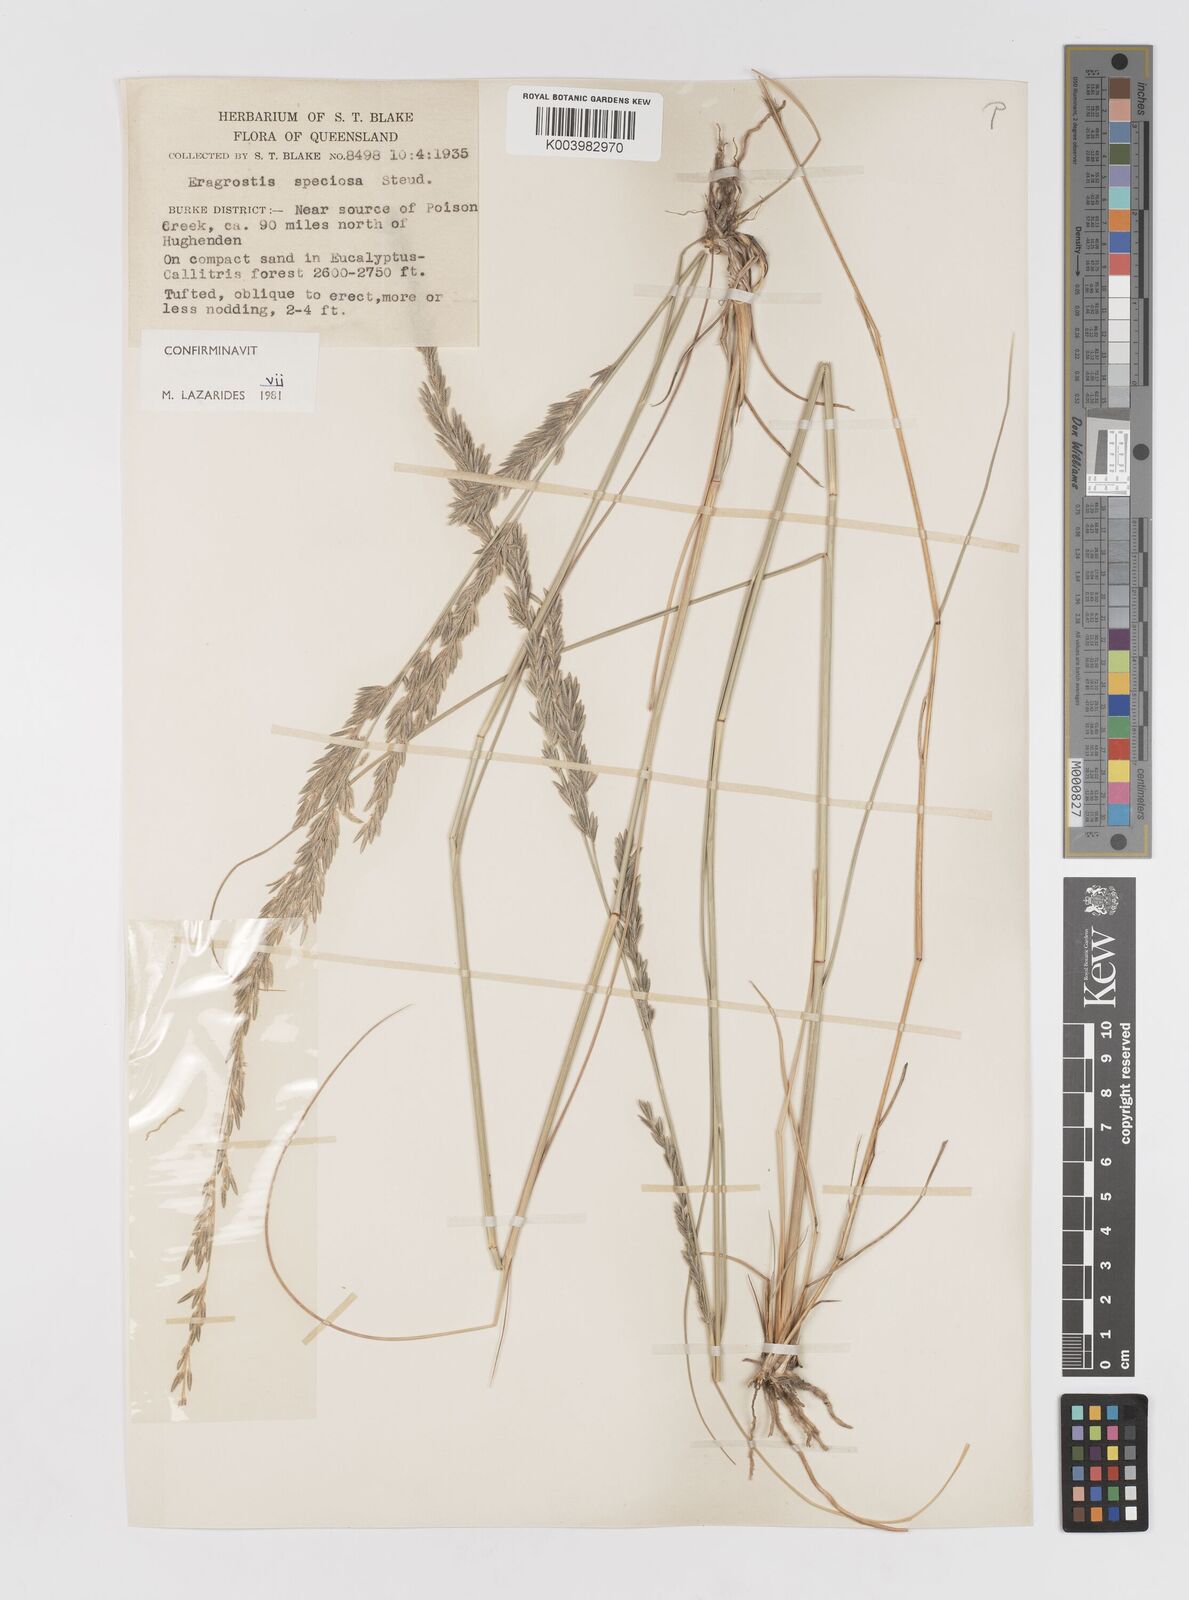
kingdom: Plantae
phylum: Tracheophyta
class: Liliopsida
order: Poales
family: Poaceae
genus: Eragrostis
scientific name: Eragrostis speciosa
